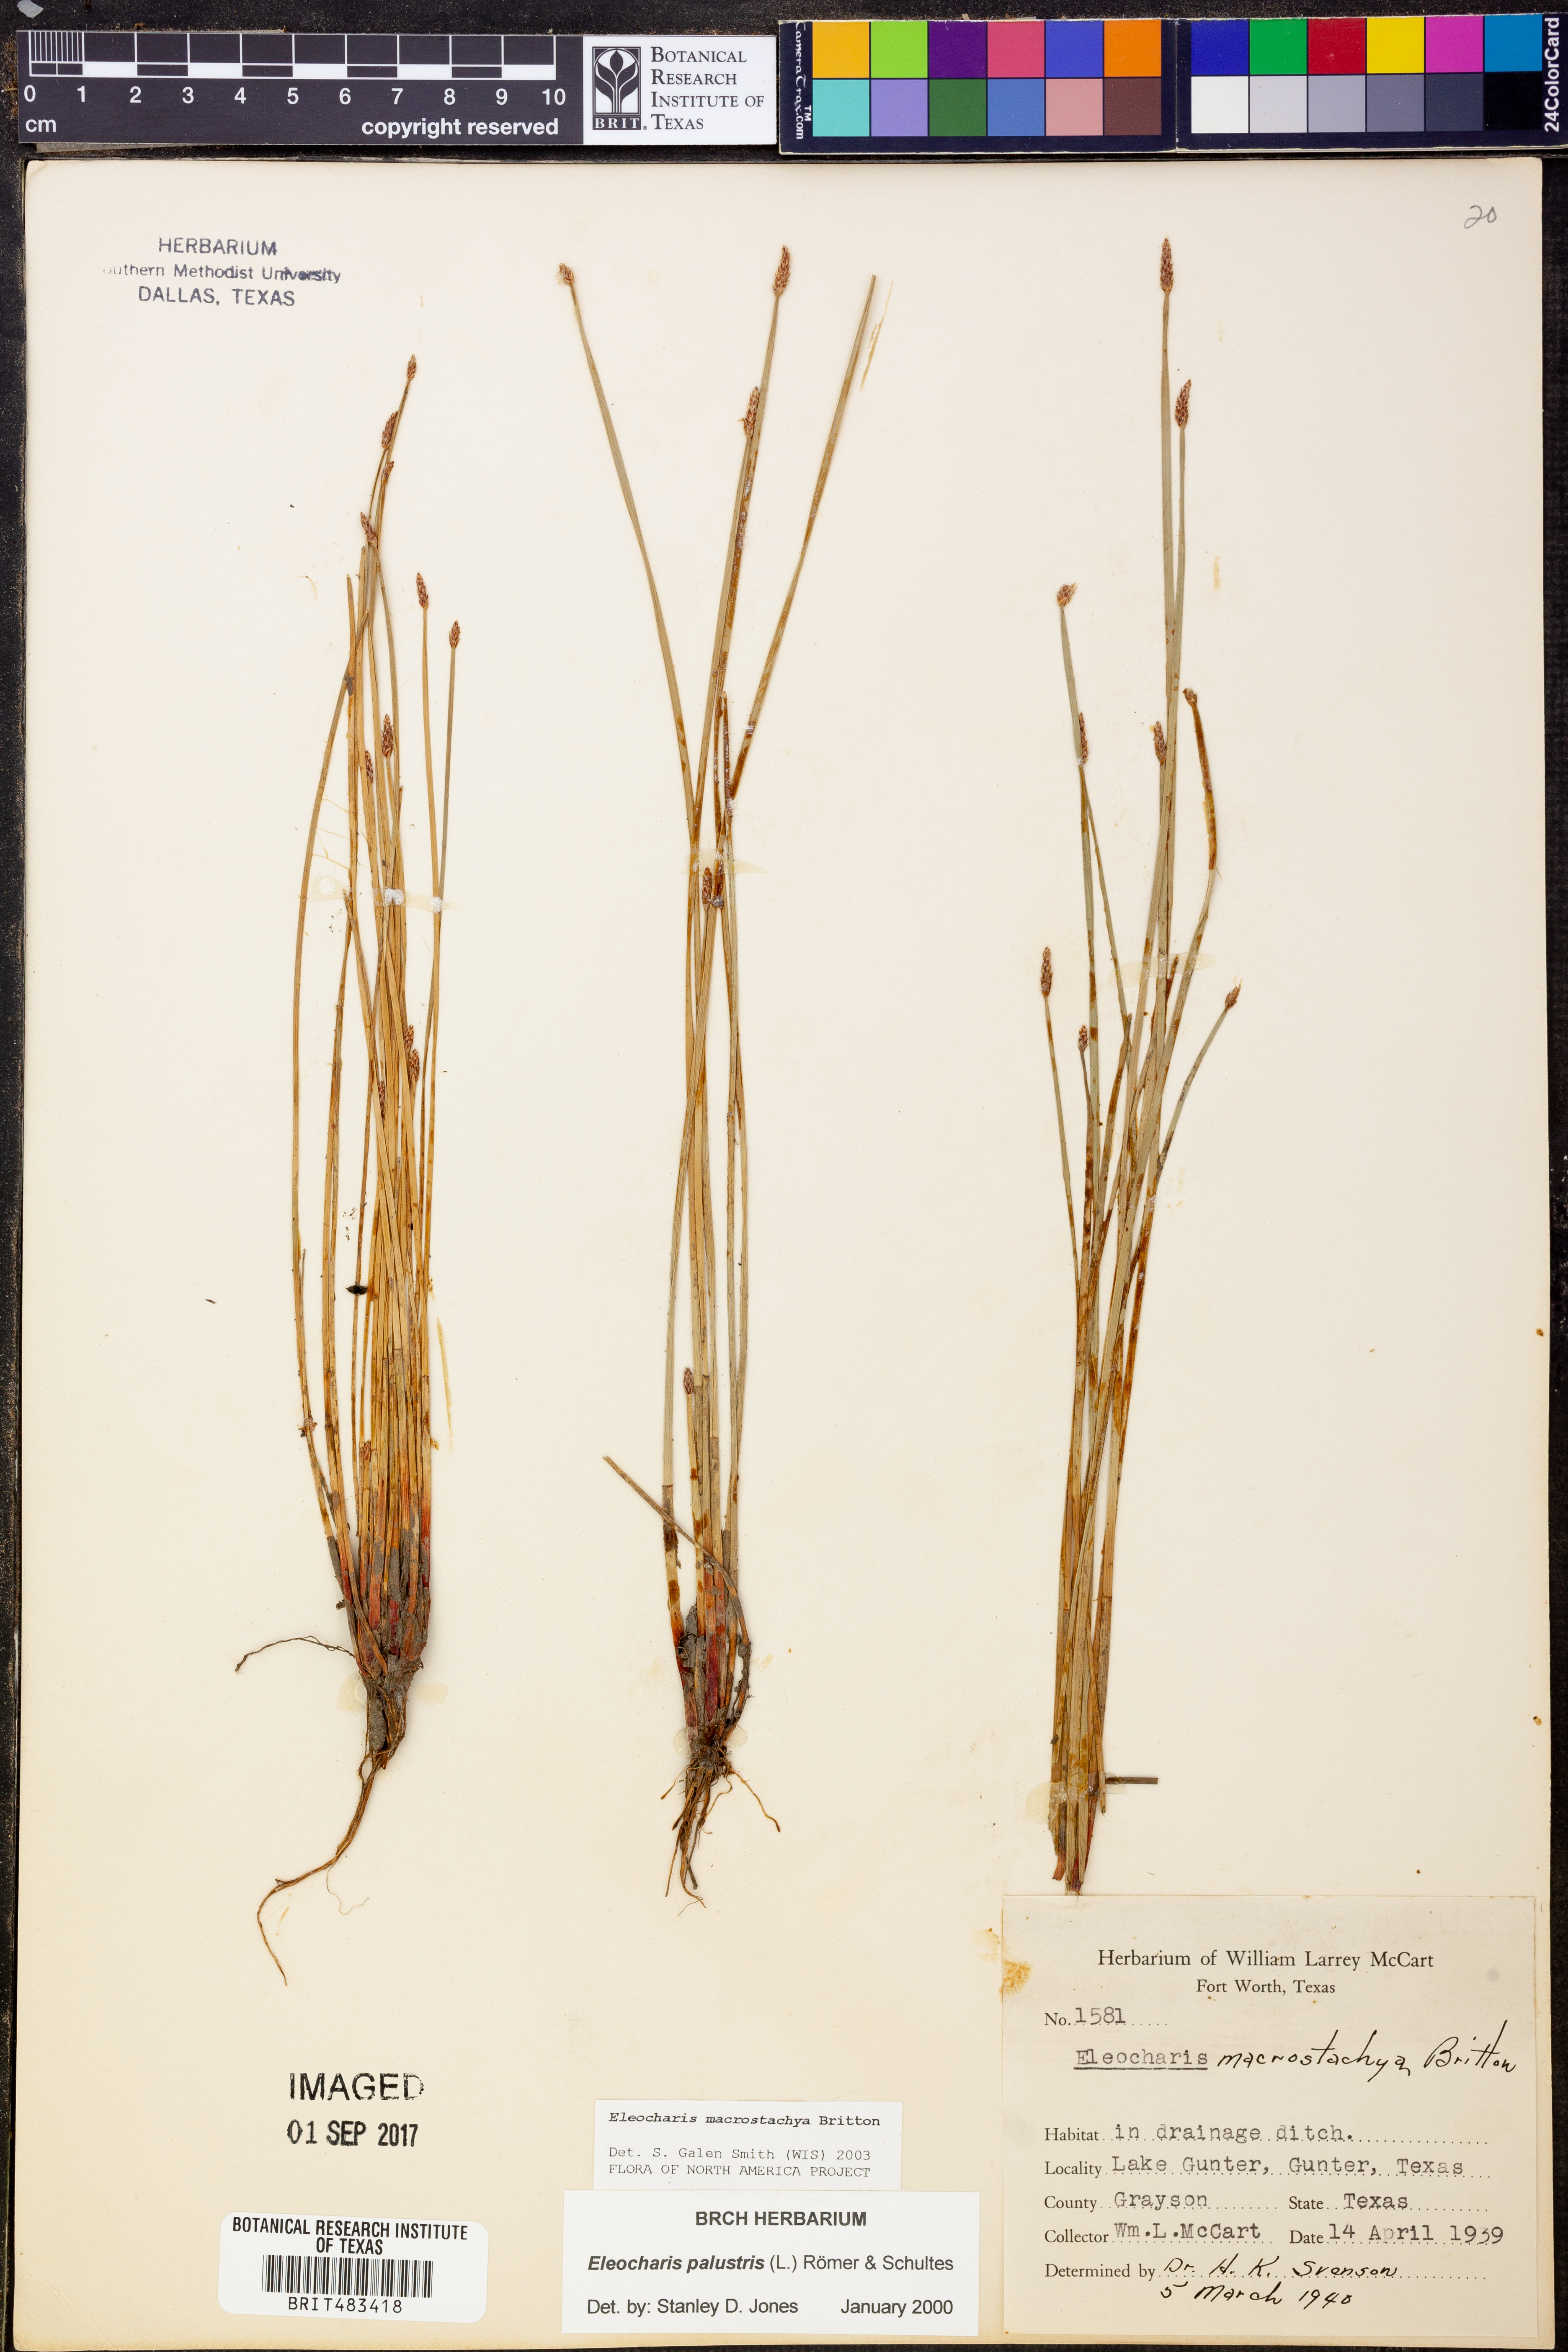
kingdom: Plantae
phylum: Tracheophyta
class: Liliopsida
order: Poales
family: Cyperaceae
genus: Eleocharis
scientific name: Eleocharis macrostachya
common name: Pale spikerush
